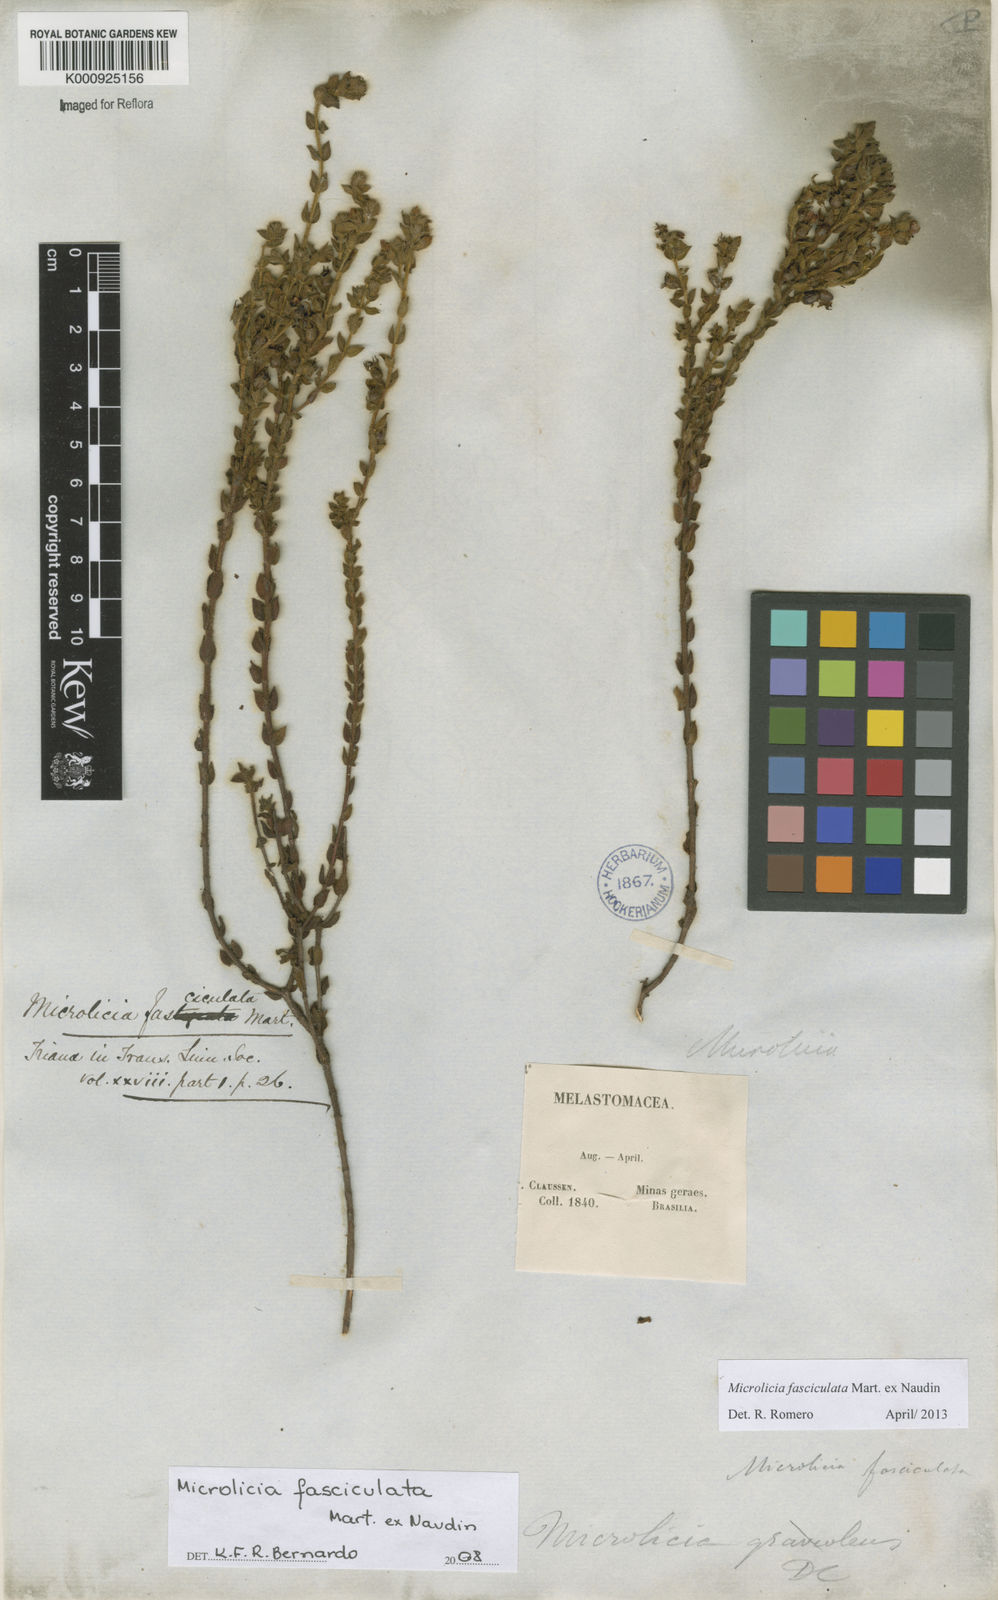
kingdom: Plantae
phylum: Tracheophyta
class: Magnoliopsida
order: Myrtales
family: Melastomataceae
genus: Microlicia
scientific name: Microlicia fasciculata
